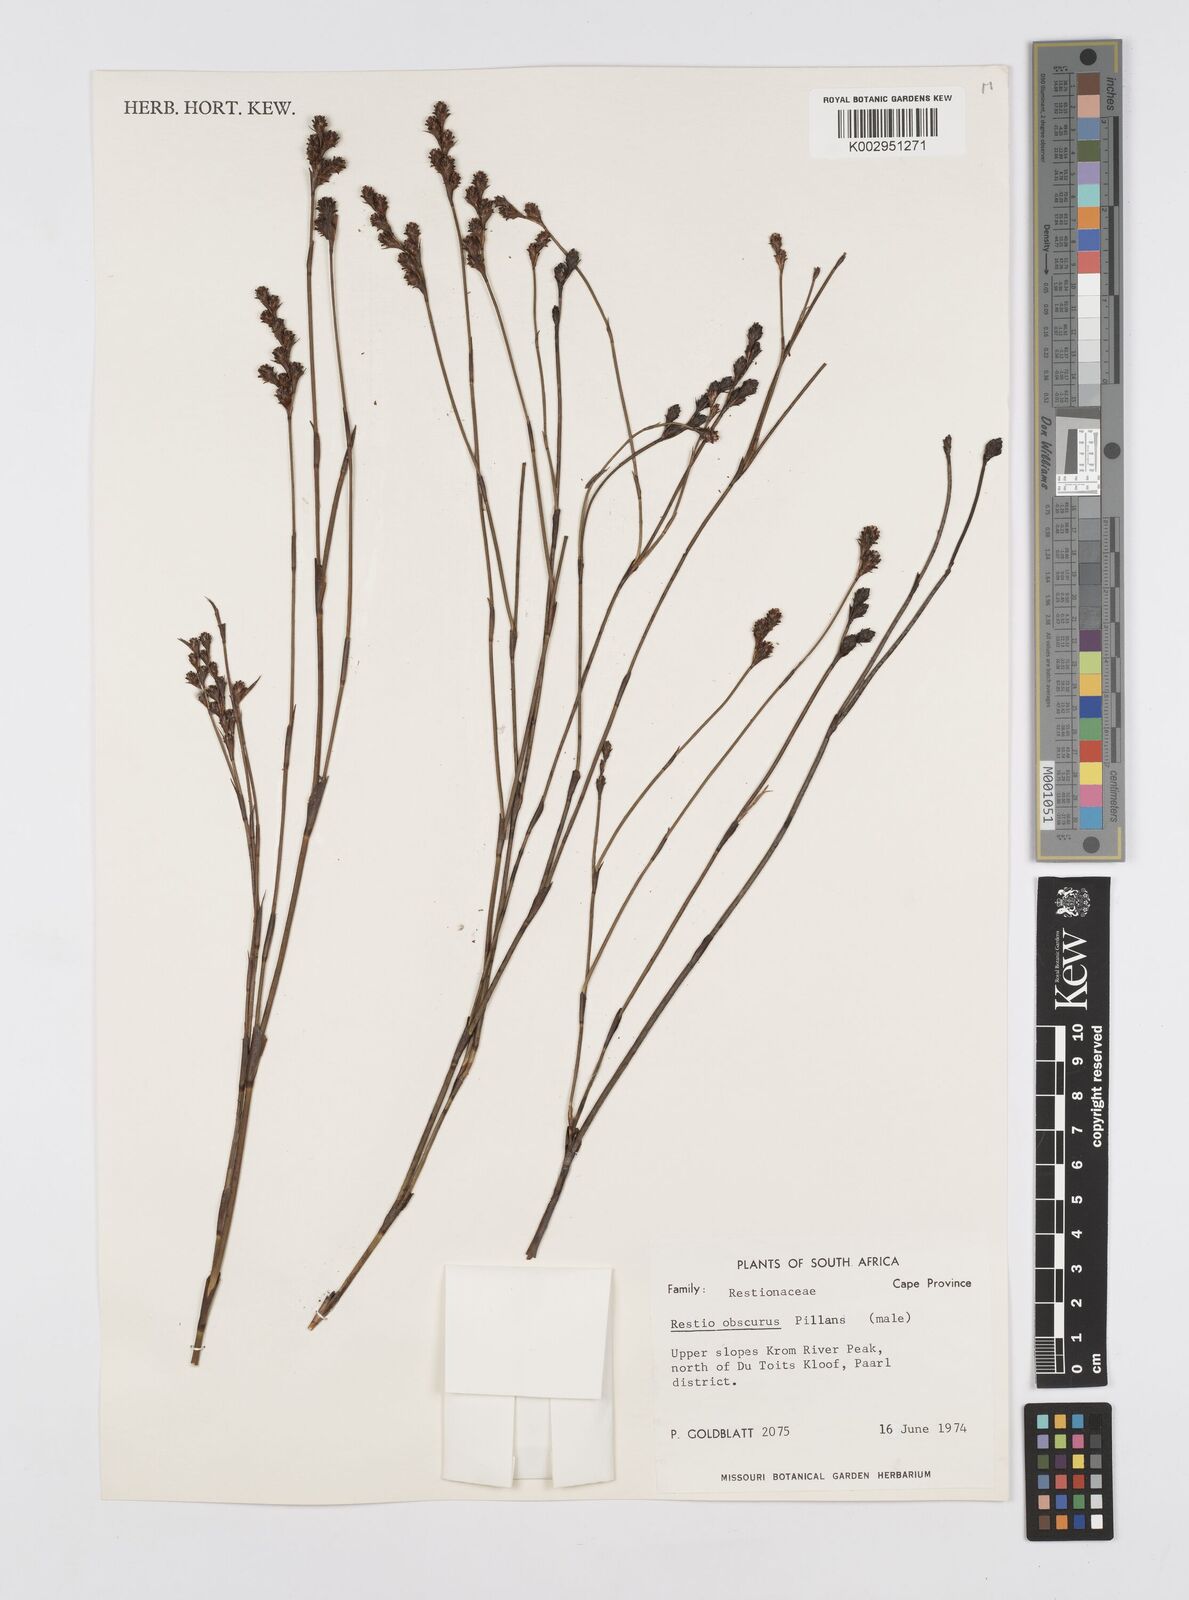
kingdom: Plantae
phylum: Tracheophyta
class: Liliopsida
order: Poales
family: Restionaceae
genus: Restio
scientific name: Restio obscurus
